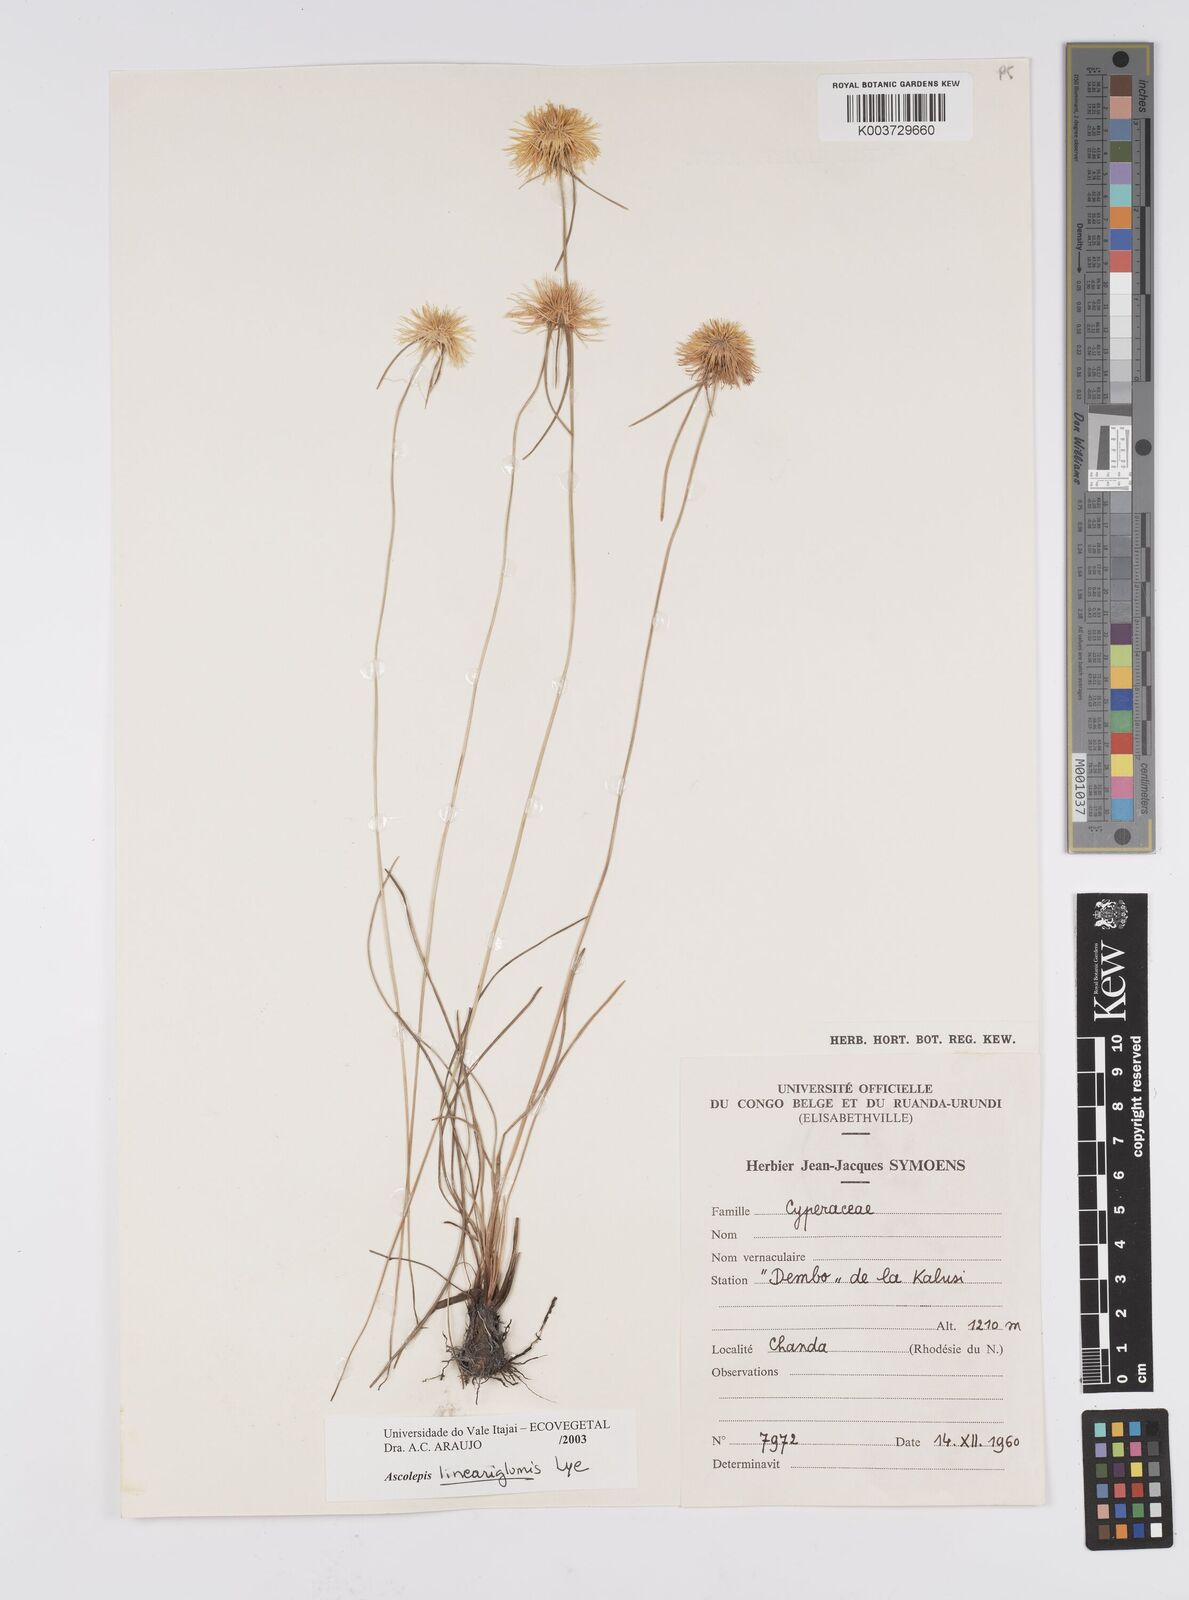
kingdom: Plantae
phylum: Tracheophyta
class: Liliopsida
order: Poales
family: Cyperaceae
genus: Cyperus
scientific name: Cyperus
